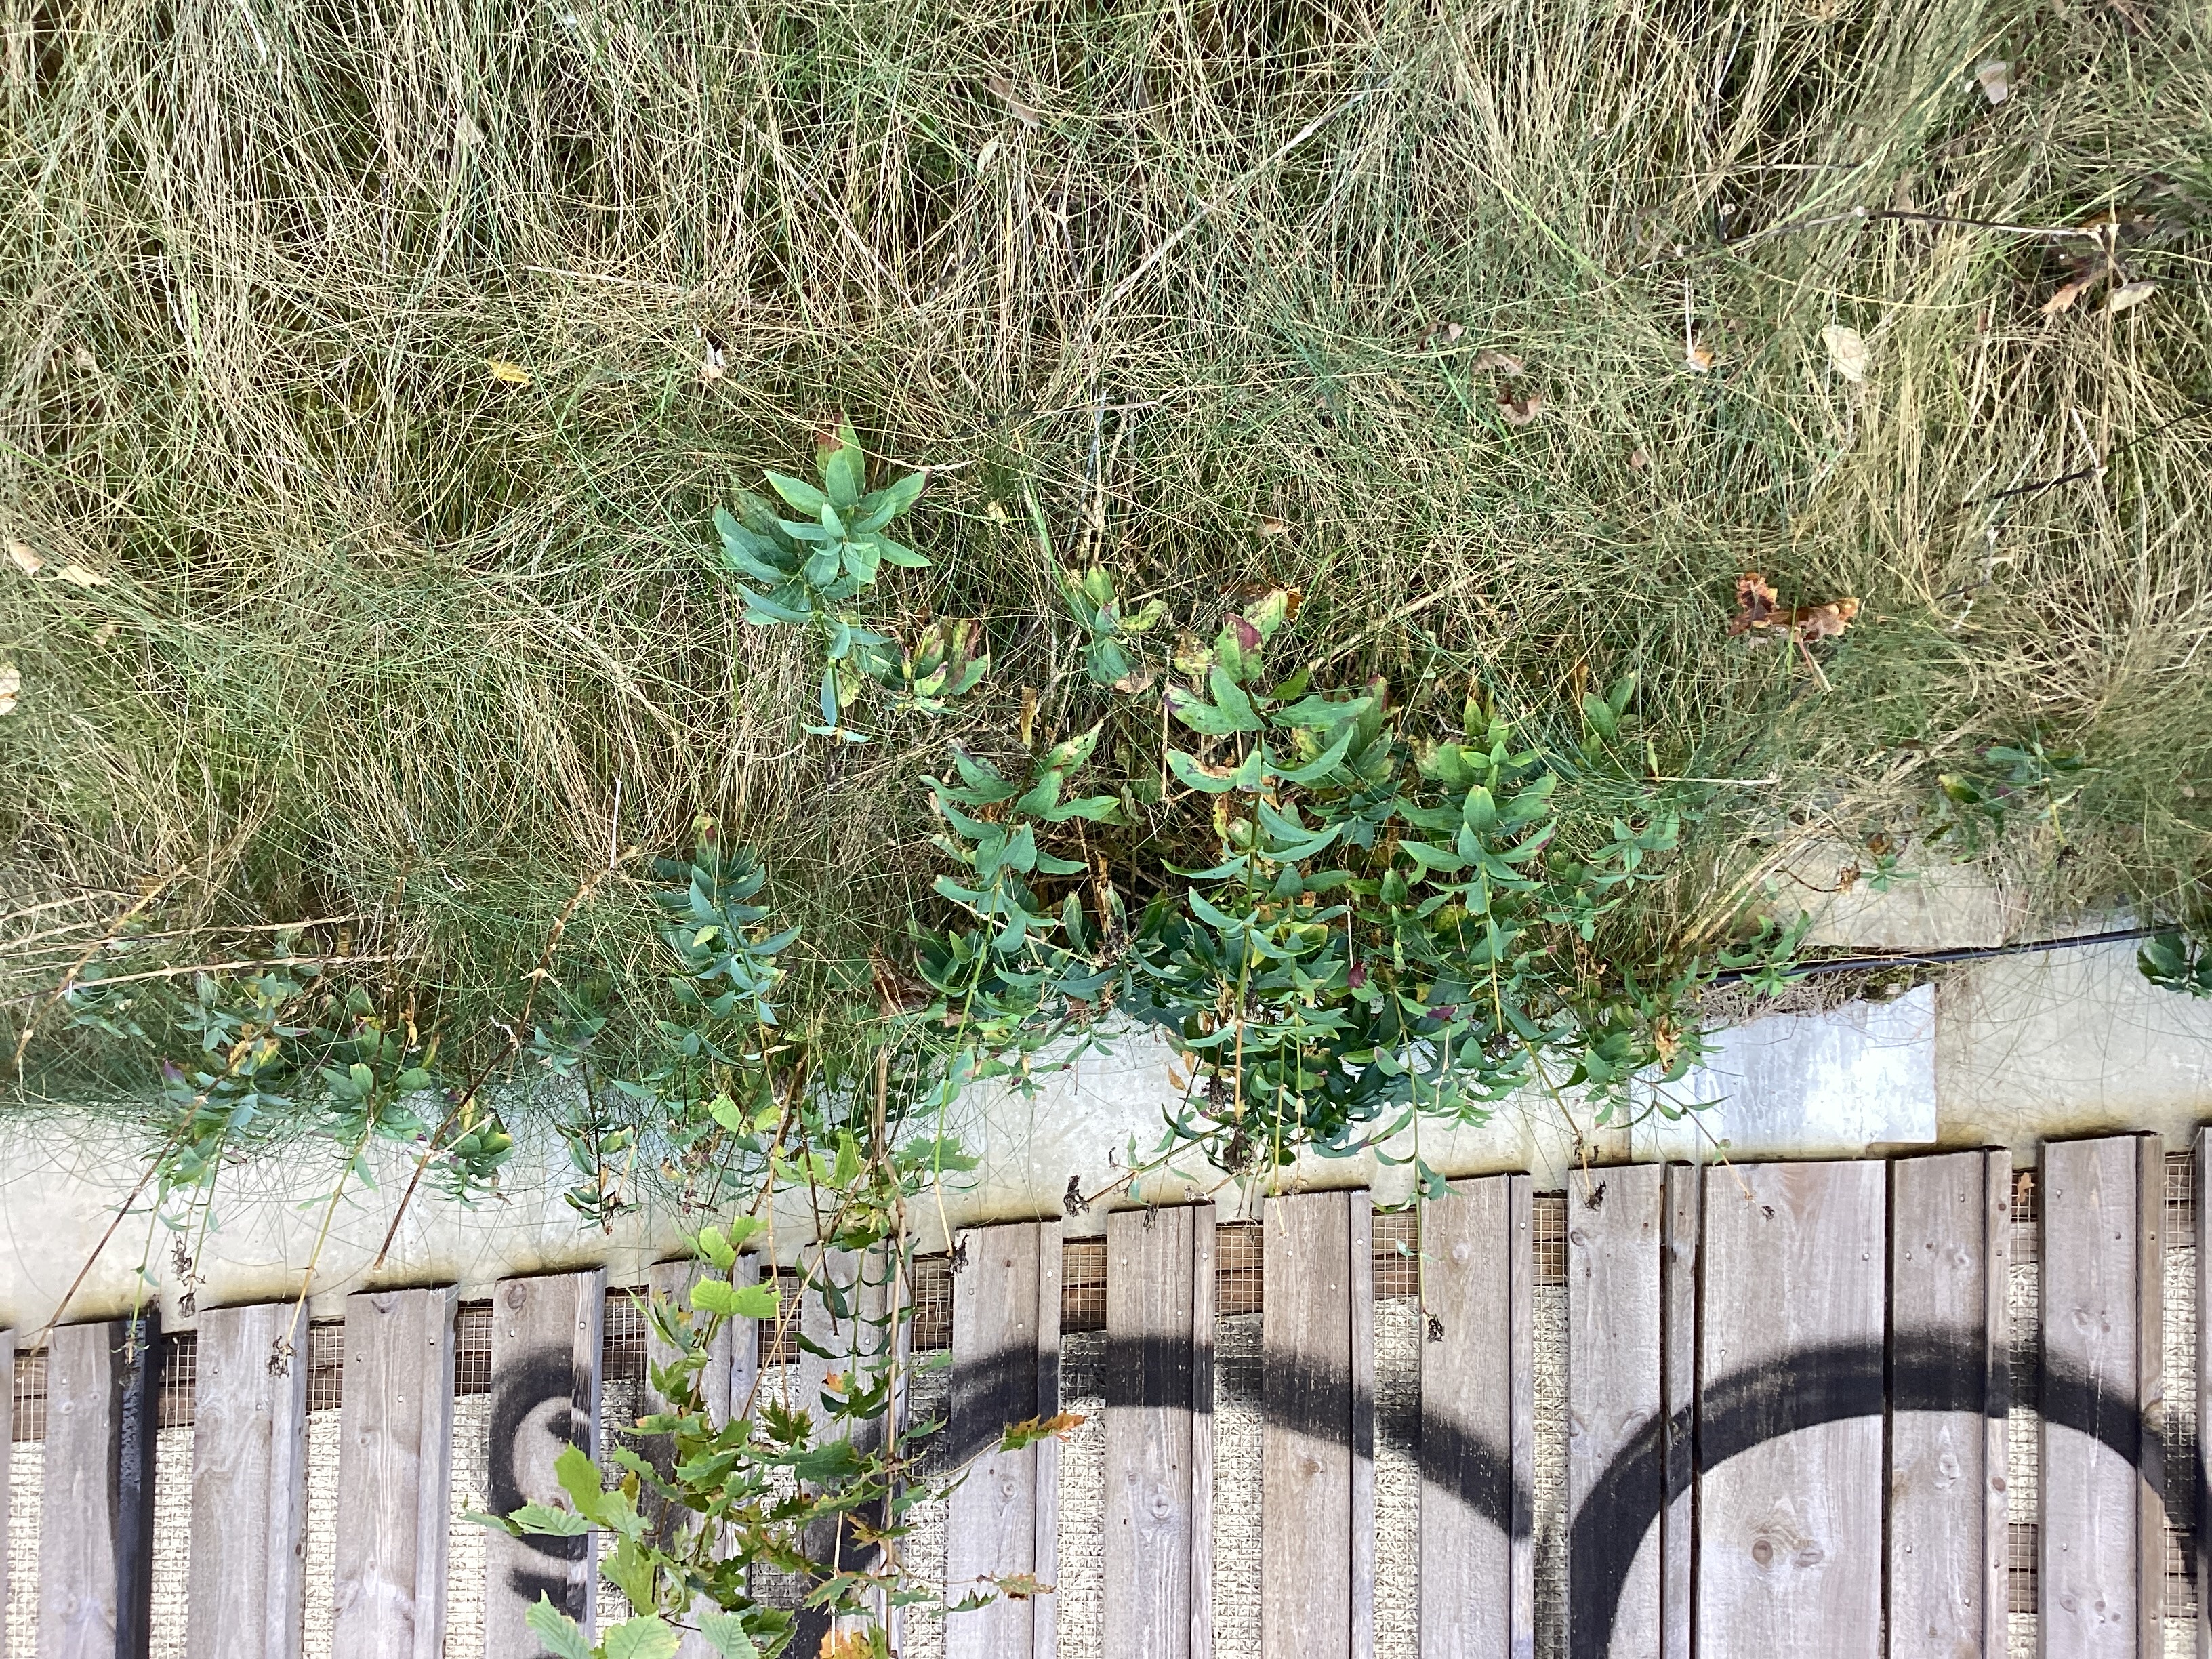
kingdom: Plantae
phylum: Tracheophyta
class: Magnoliopsida
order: Caryophyllales
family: Caryophyllaceae
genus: Saponaria
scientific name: Saponaria officinalis
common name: såpeurt
